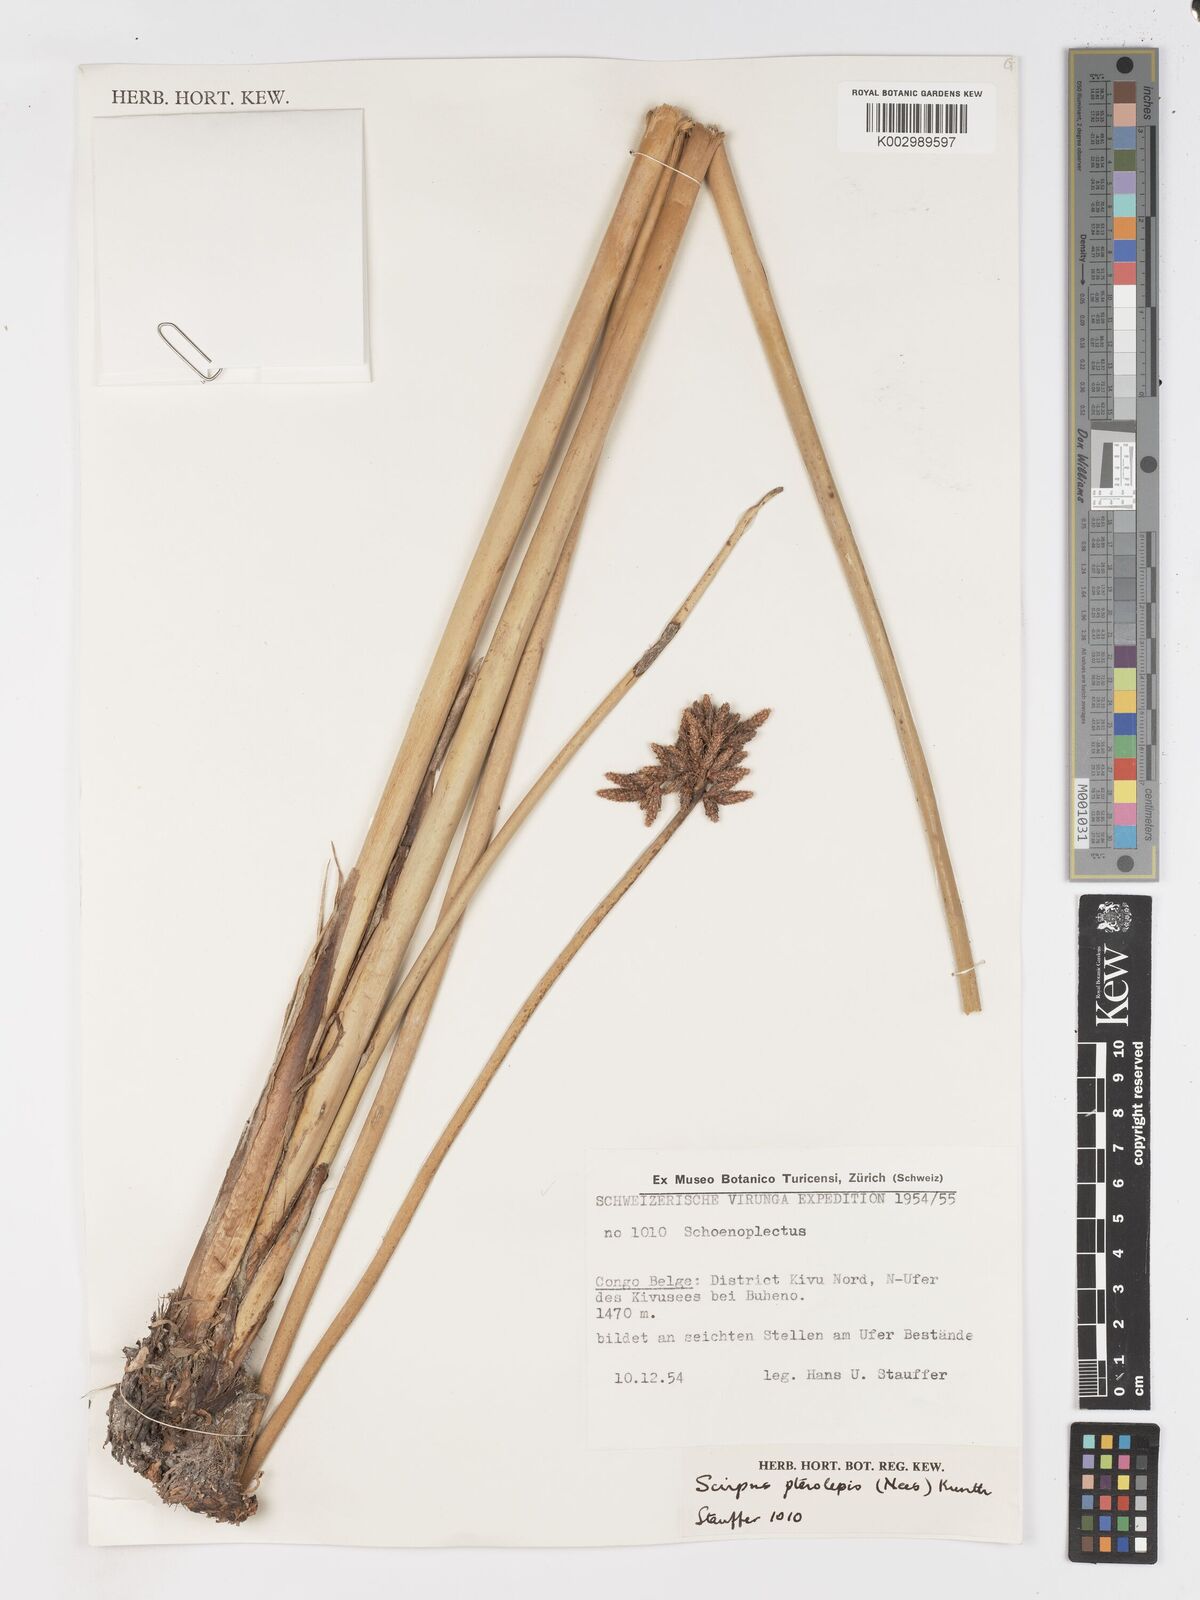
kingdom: Plantae
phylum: Tracheophyta
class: Liliopsida
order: Poales
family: Cyperaceae
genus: Schoenoplectus
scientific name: Schoenoplectus
